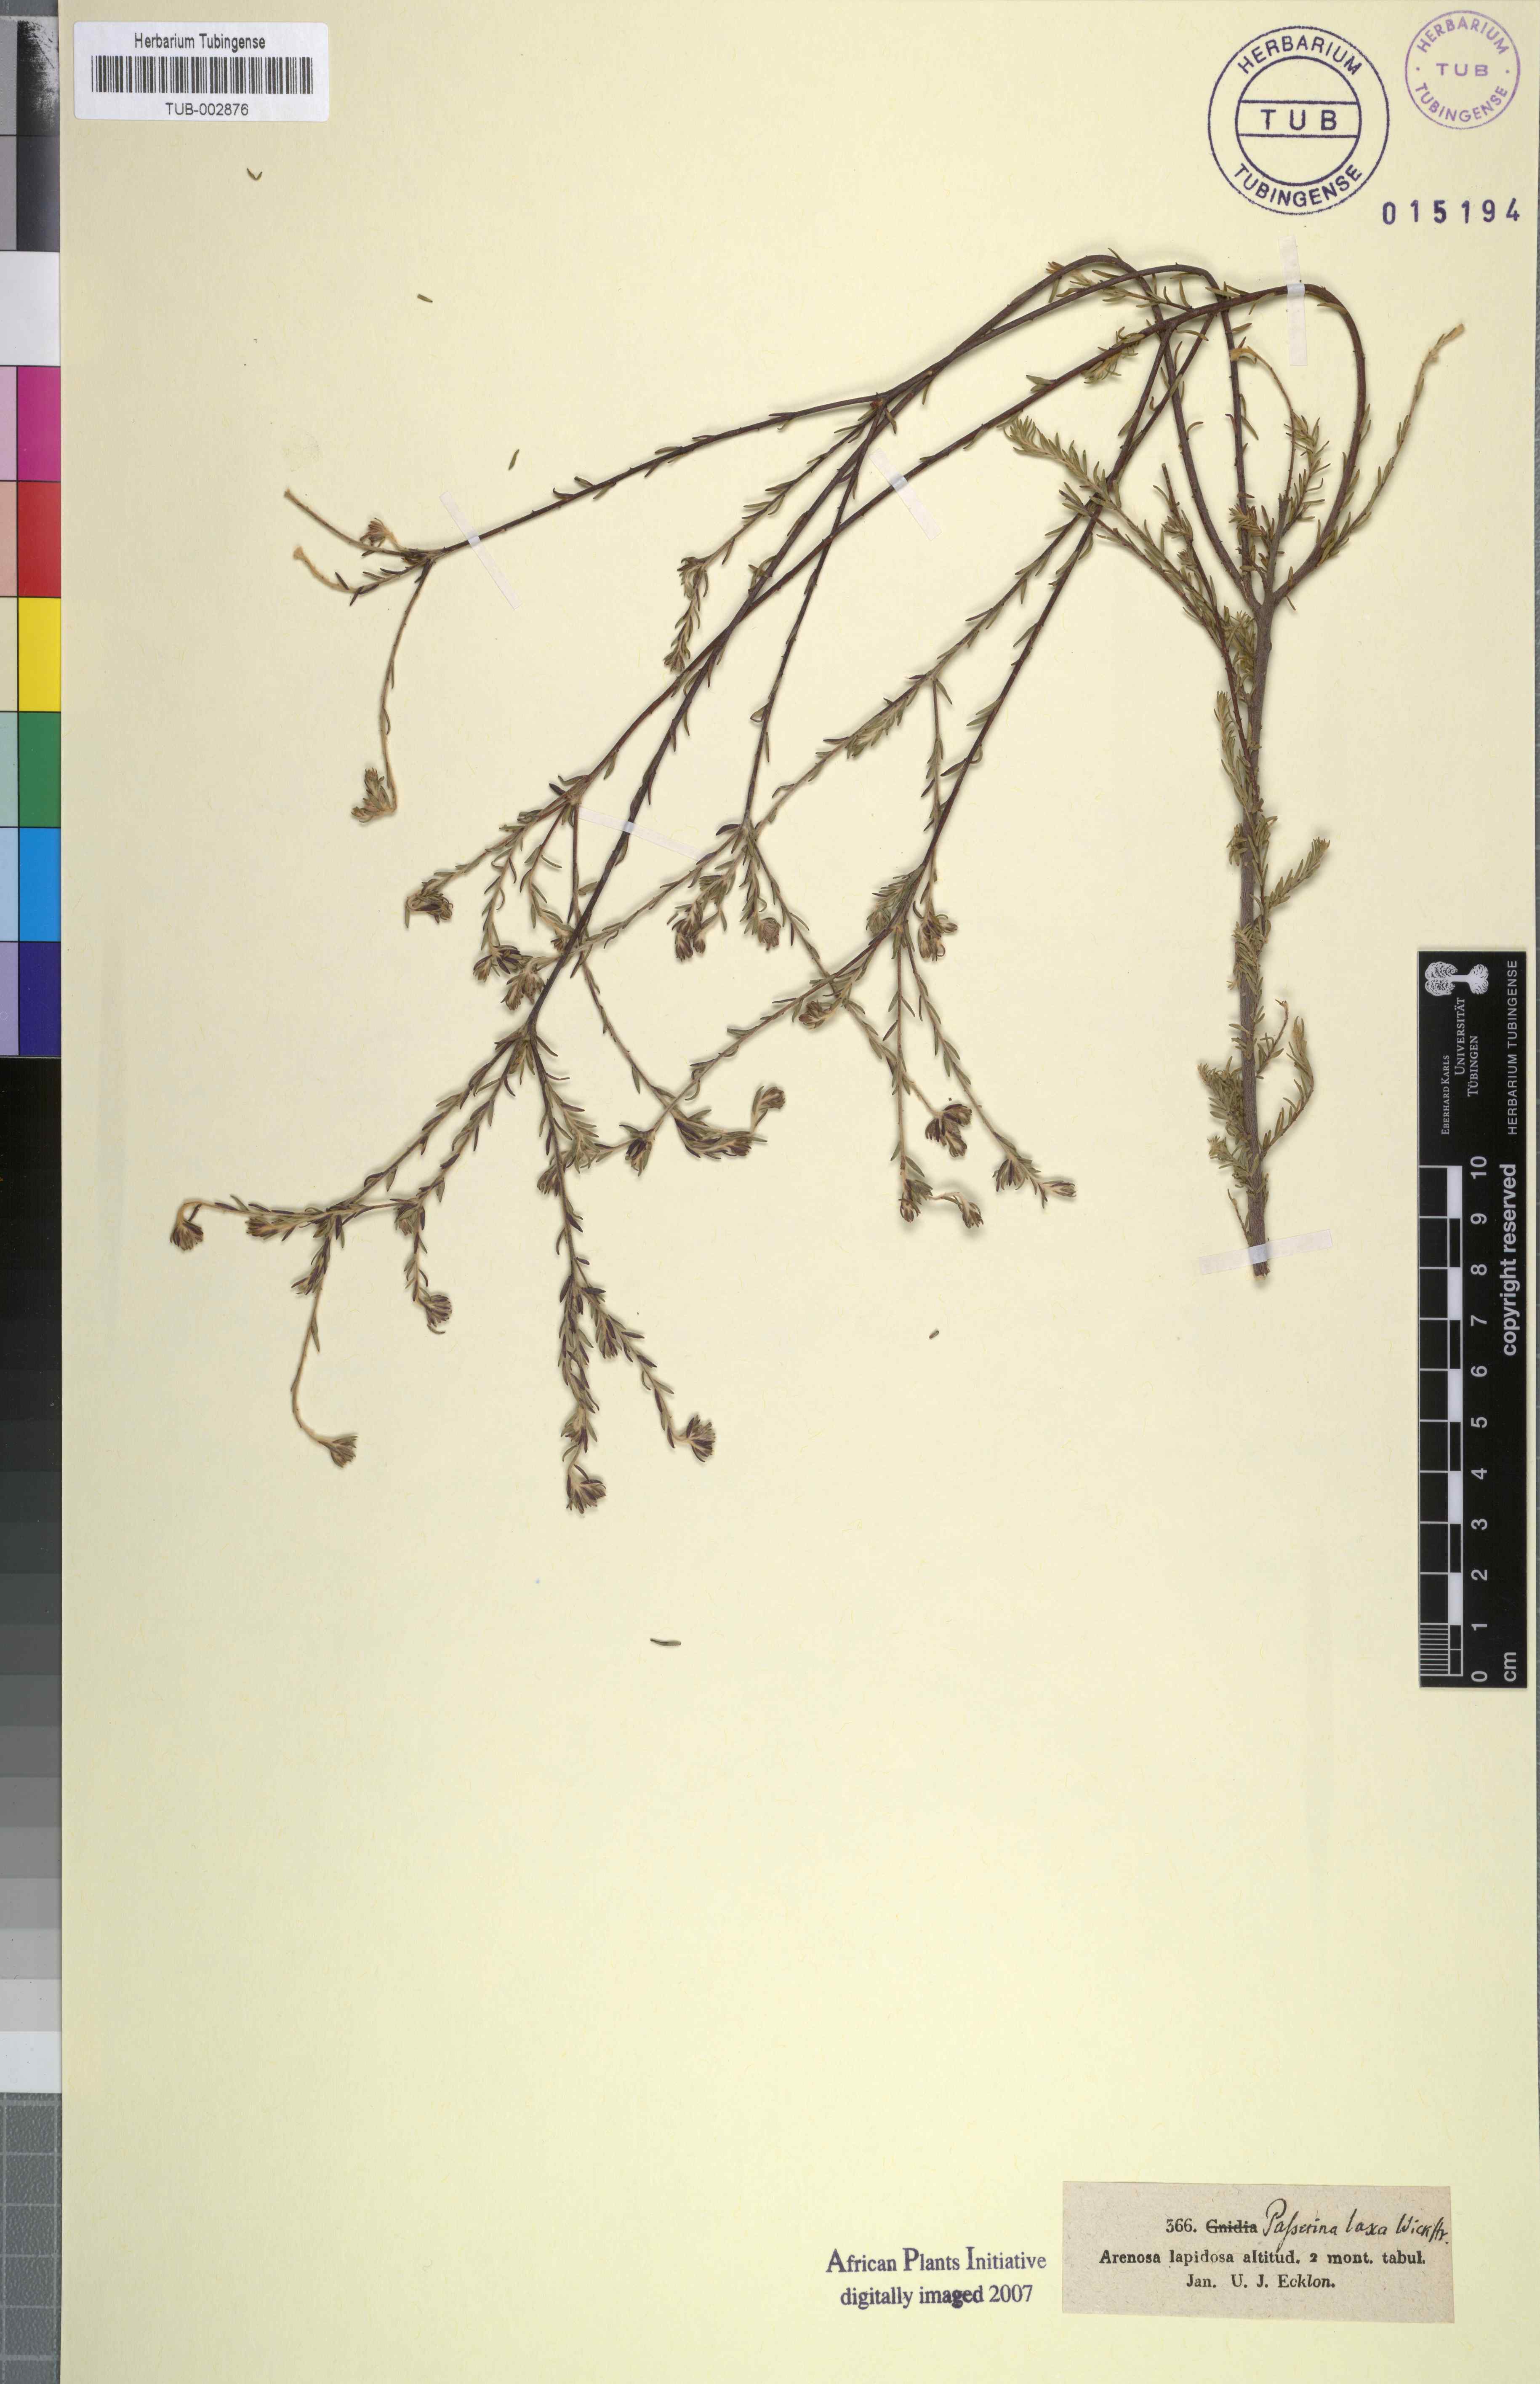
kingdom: Plantae
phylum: Tracheophyta
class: Magnoliopsida
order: Malvales
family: Thymelaeaceae
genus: Gnidia
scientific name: Gnidia laxa
